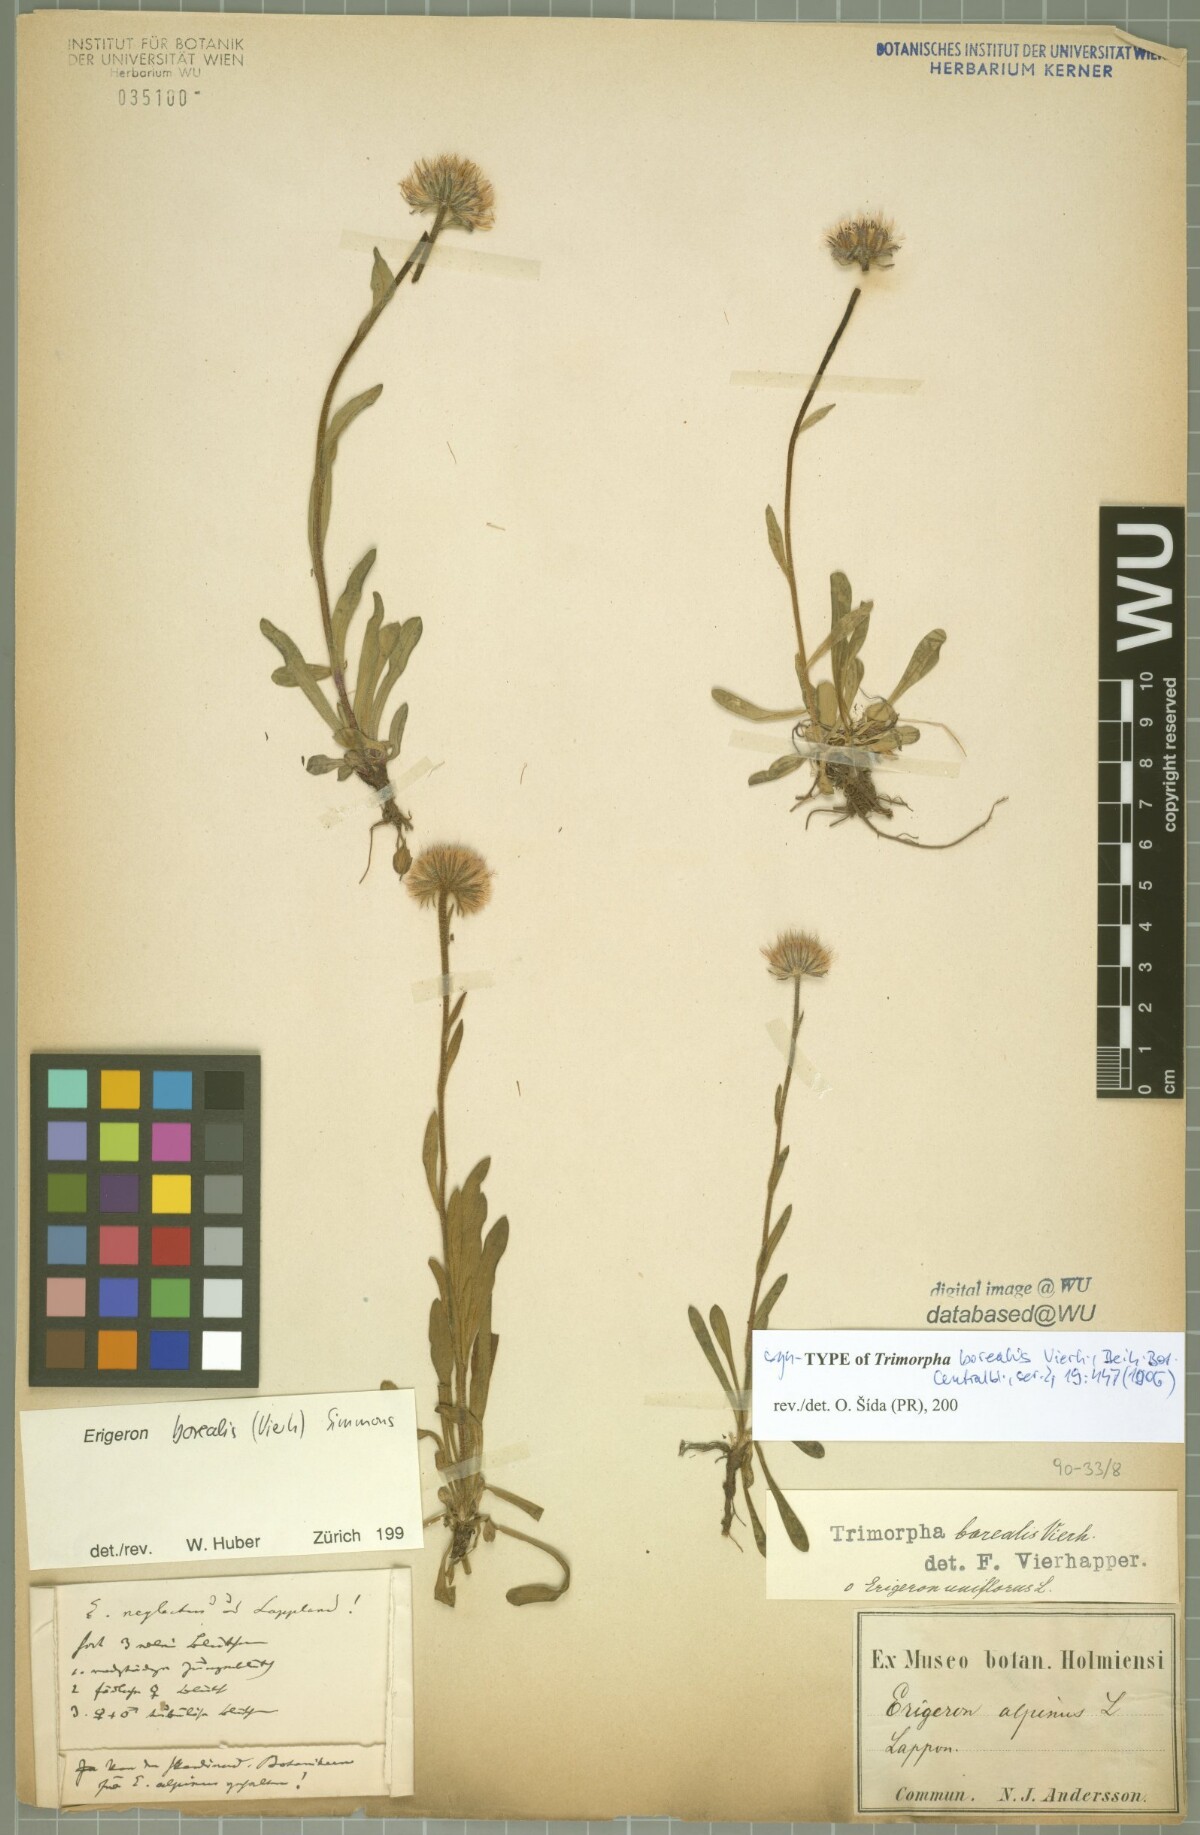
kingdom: Plantae
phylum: Tracheophyta
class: Magnoliopsida
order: Asterales
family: Asteraceae
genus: Erigeron
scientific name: Erigeron borealis
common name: Alpine fleabane
